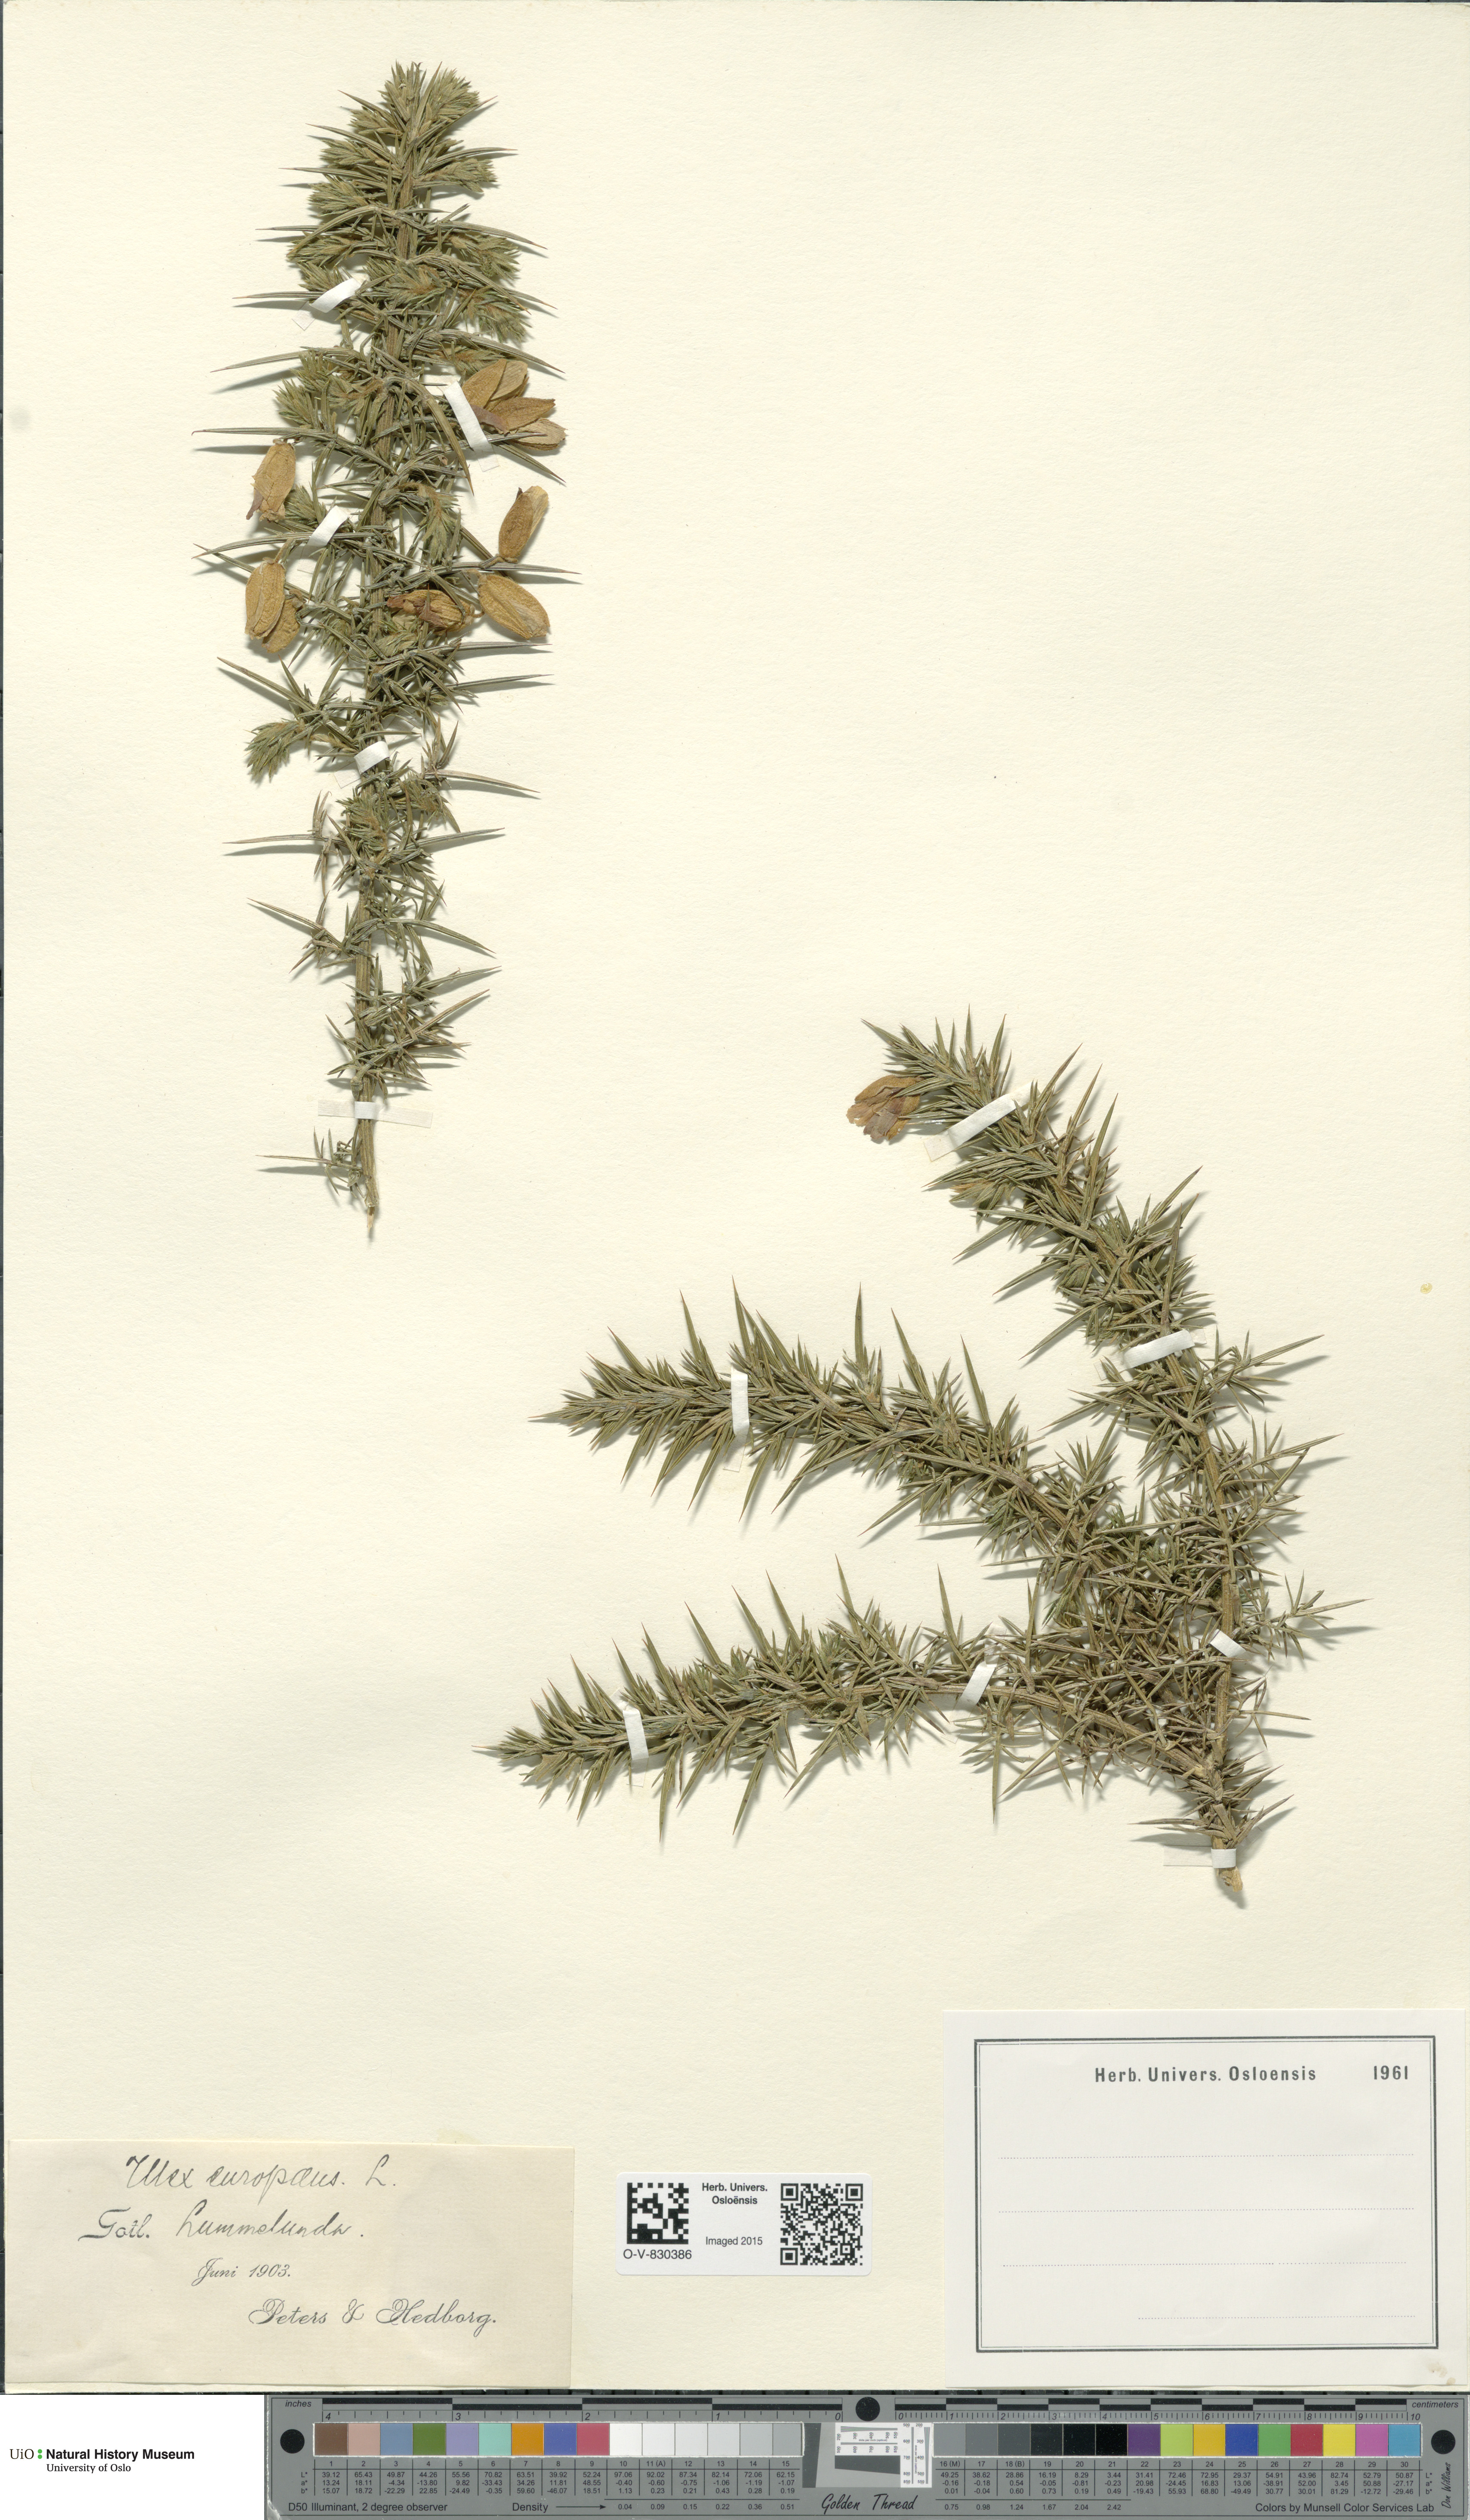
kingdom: Plantae
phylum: Tracheophyta
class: Magnoliopsida
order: Fabales
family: Fabaceae
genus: Ulex
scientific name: Ulex europaeus
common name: Common gorse
